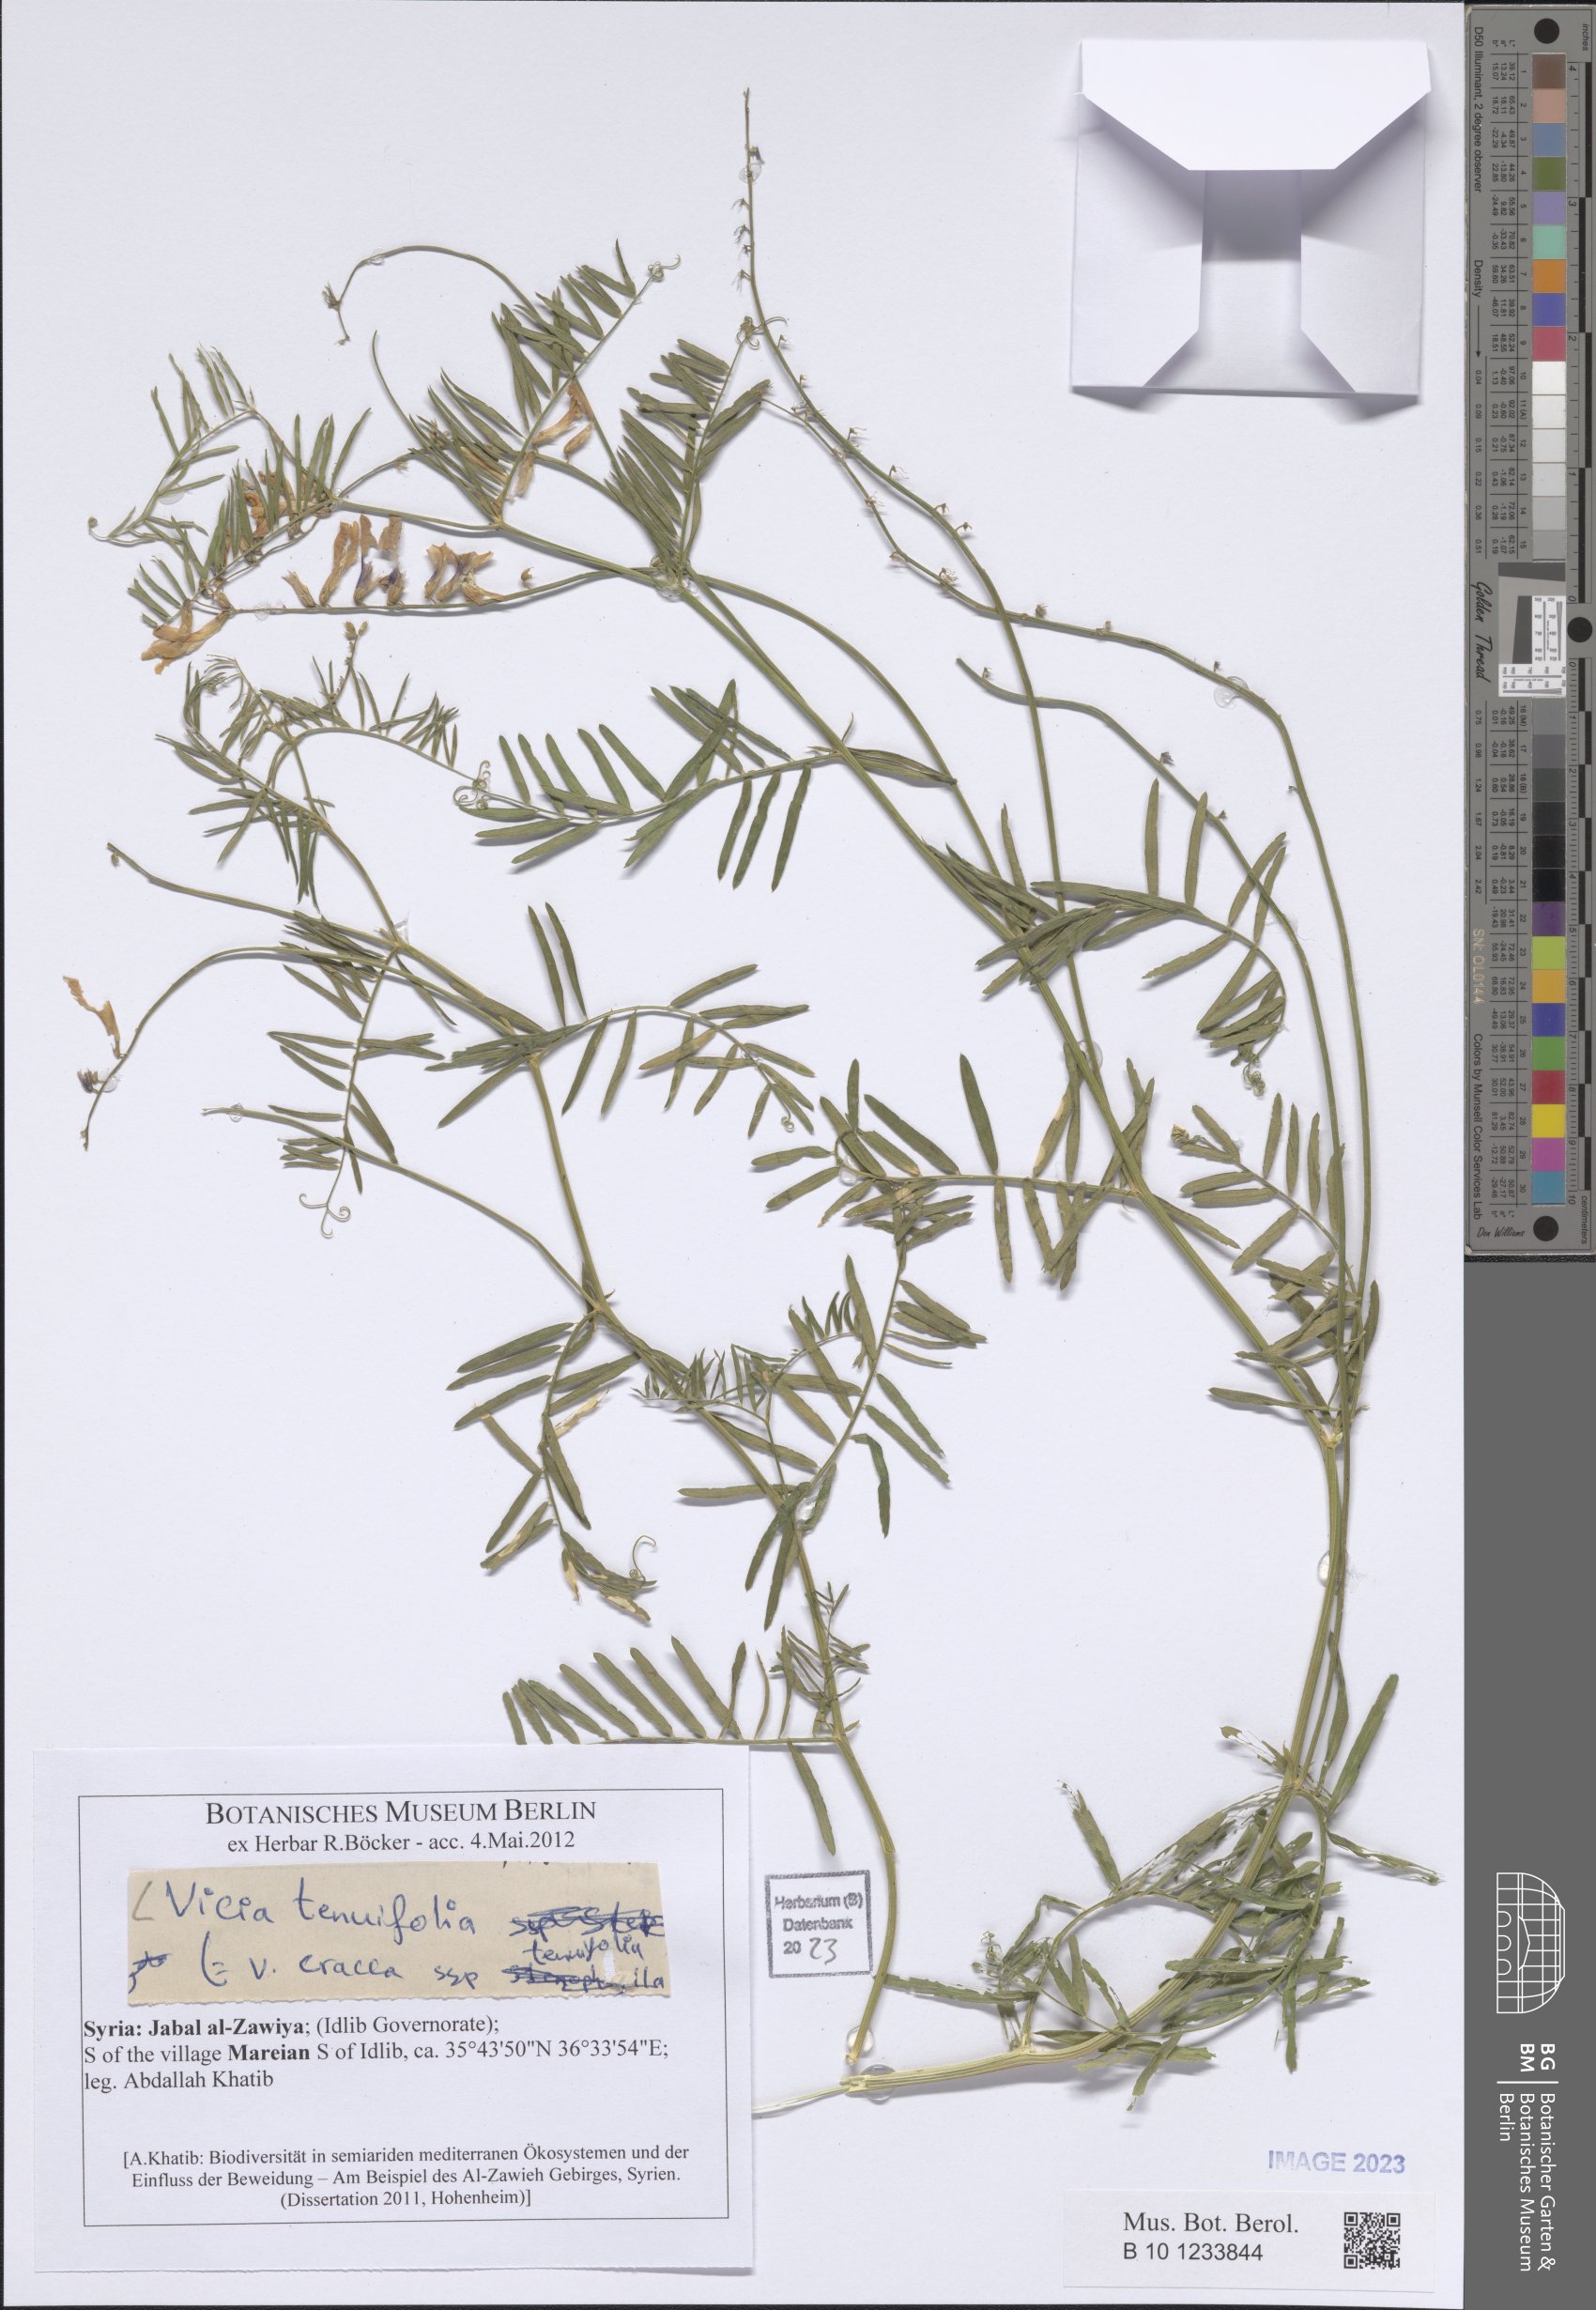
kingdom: Plantae
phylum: Tracheophyta
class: Magnoliopsida
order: Fabales
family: Fabaceae
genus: Vicia
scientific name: Vicia tenuifolia
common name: Fine-leaved vetch
